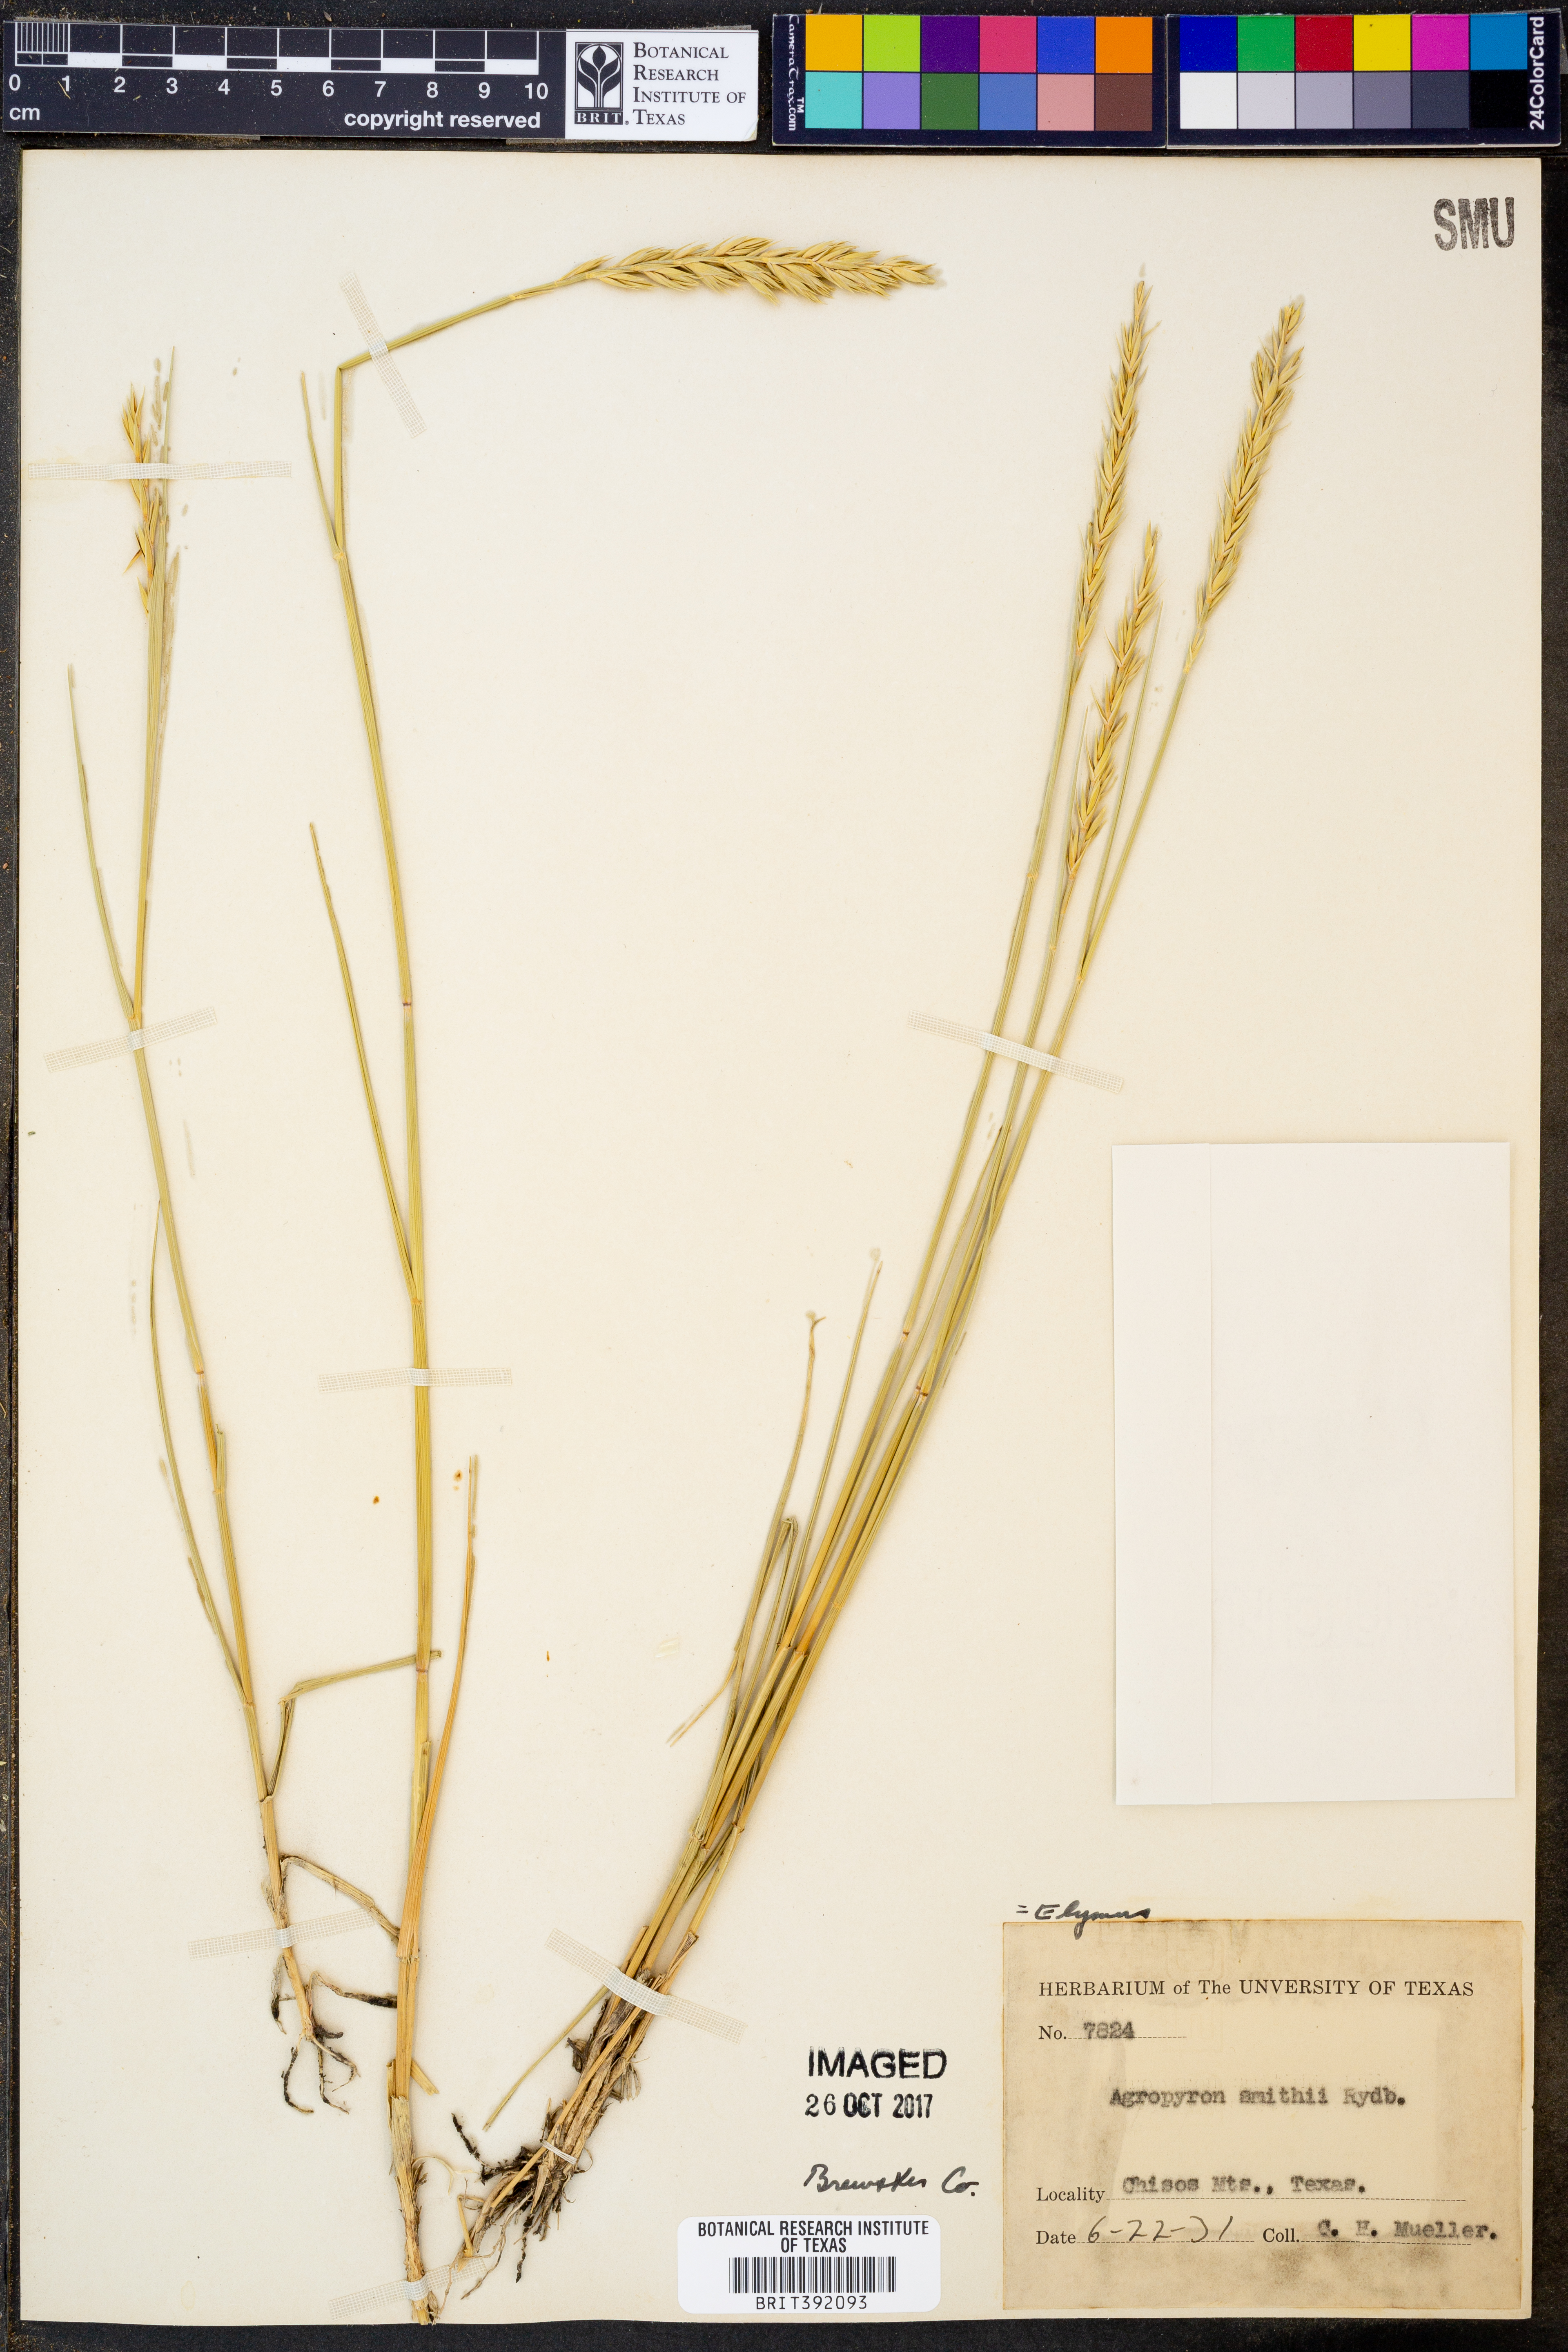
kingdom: Plantae
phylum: Tracheophyta
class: Liliopsida
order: Poales
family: Poaceae
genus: Elymus
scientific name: Elymus smithii
